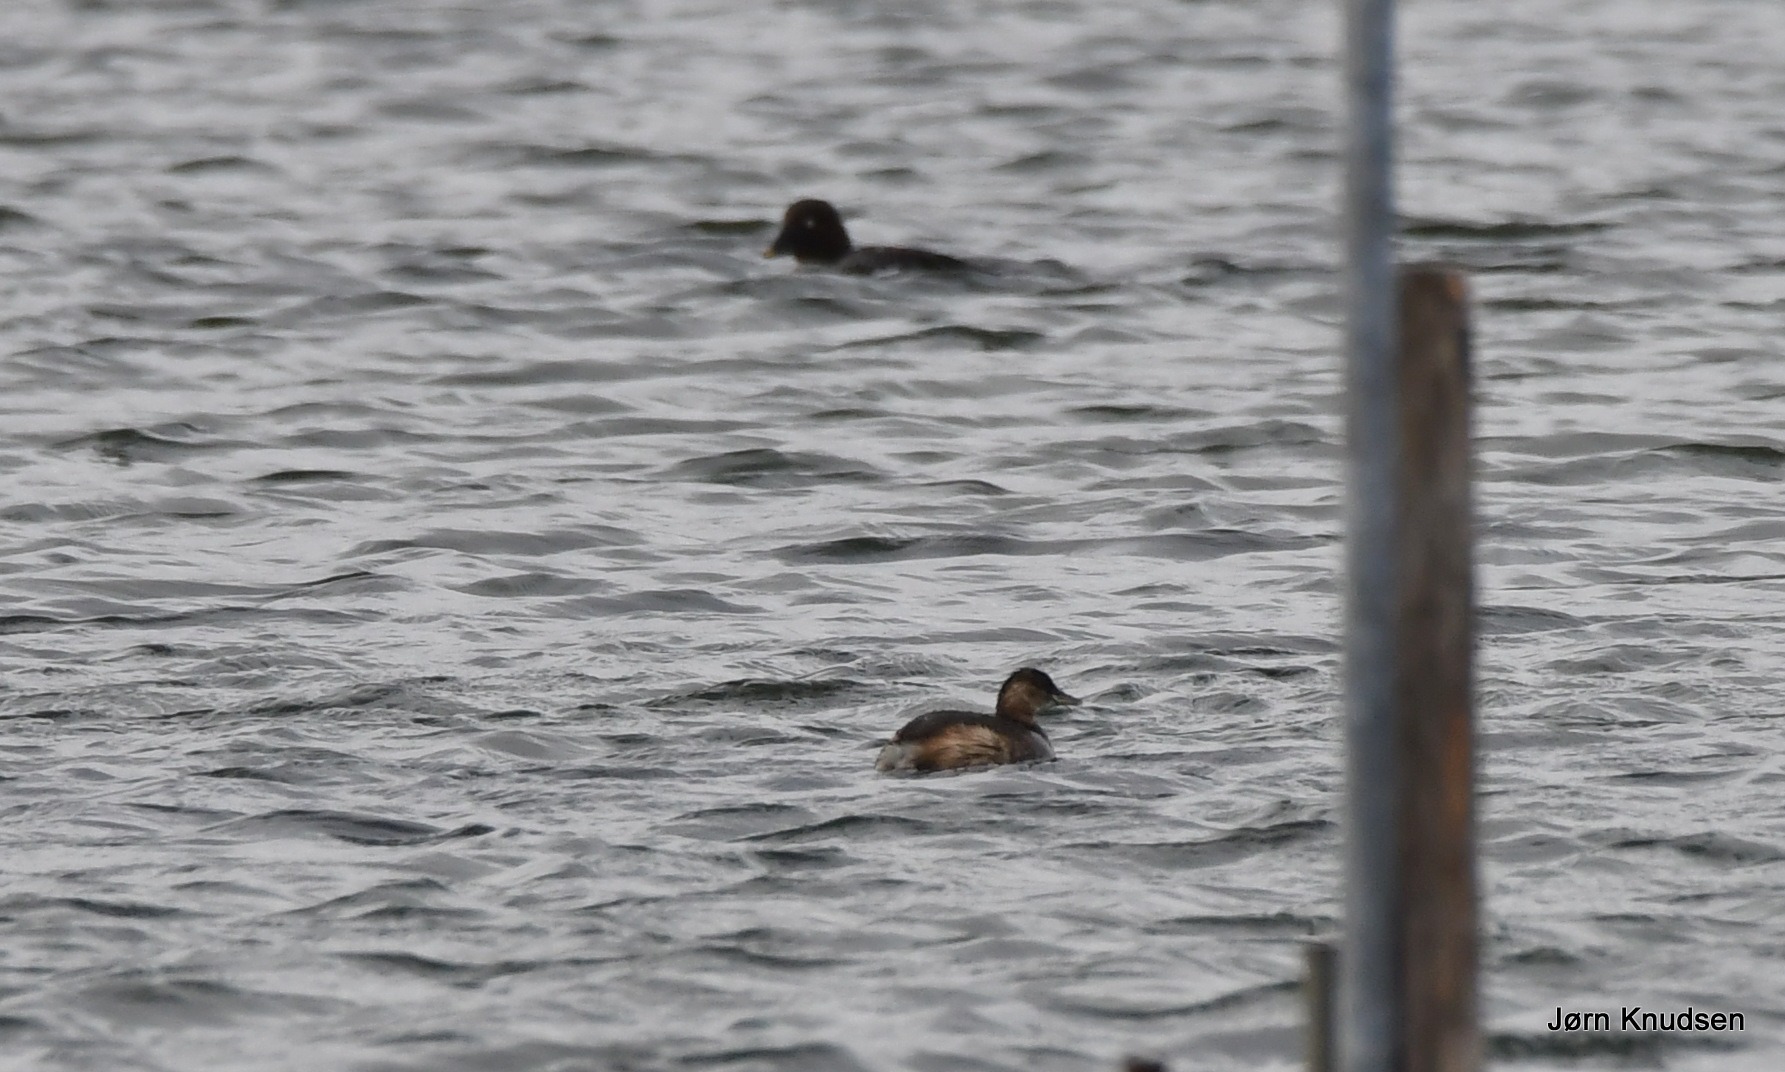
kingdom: Animalia
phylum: Chordata
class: Aves
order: Podicipediformes
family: Podicipedidae
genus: Tachybaptus
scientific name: Tachybaptus ruficollis
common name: Lille lappedykker
